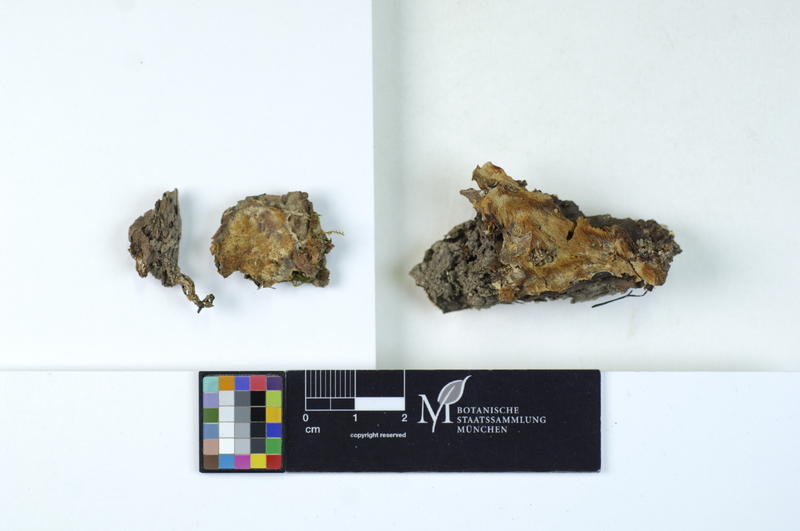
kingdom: Fungi
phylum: Basidiomycota
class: Agaricomycetes
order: Polyporales
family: Meruliaceae
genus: Physisporinus
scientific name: Physisporinus vitreus
